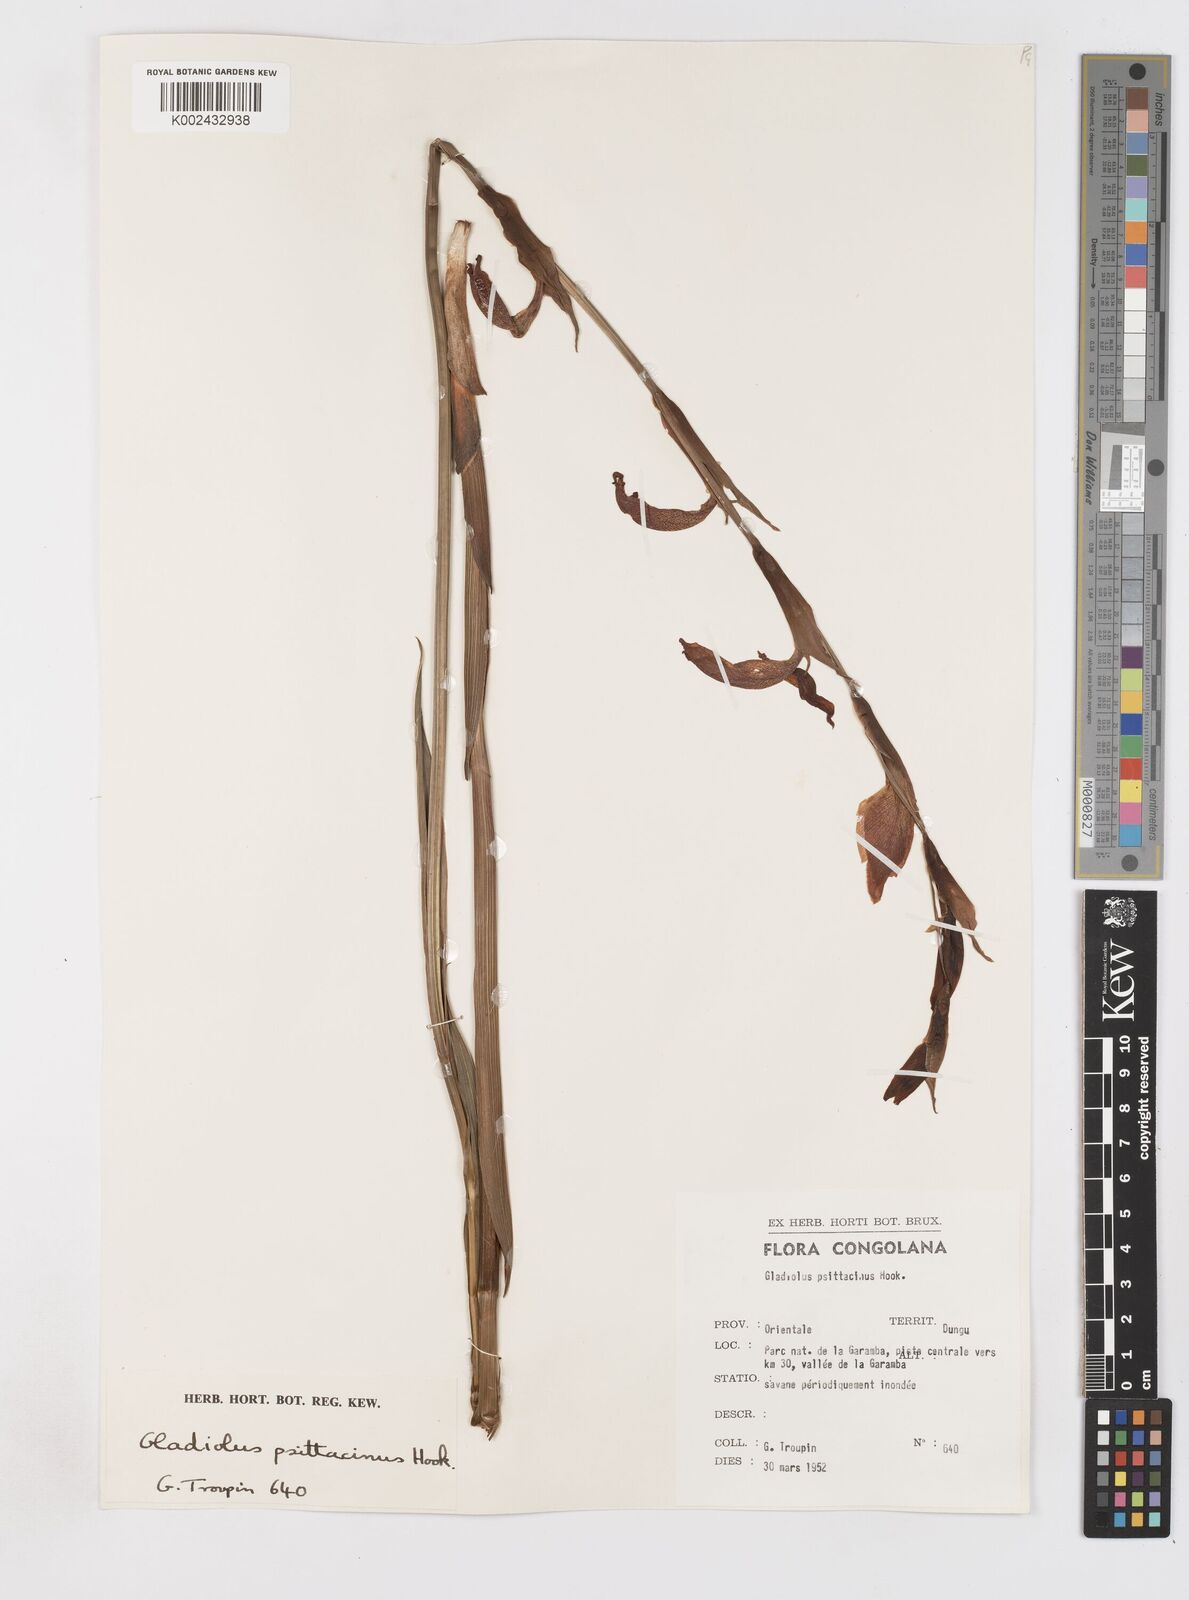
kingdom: Plantae
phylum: Tracheophyta
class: Liliopsida
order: Asparagales
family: Iridaceae
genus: Gladiolus
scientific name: Gladiolus dalenii
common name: Cornflag
